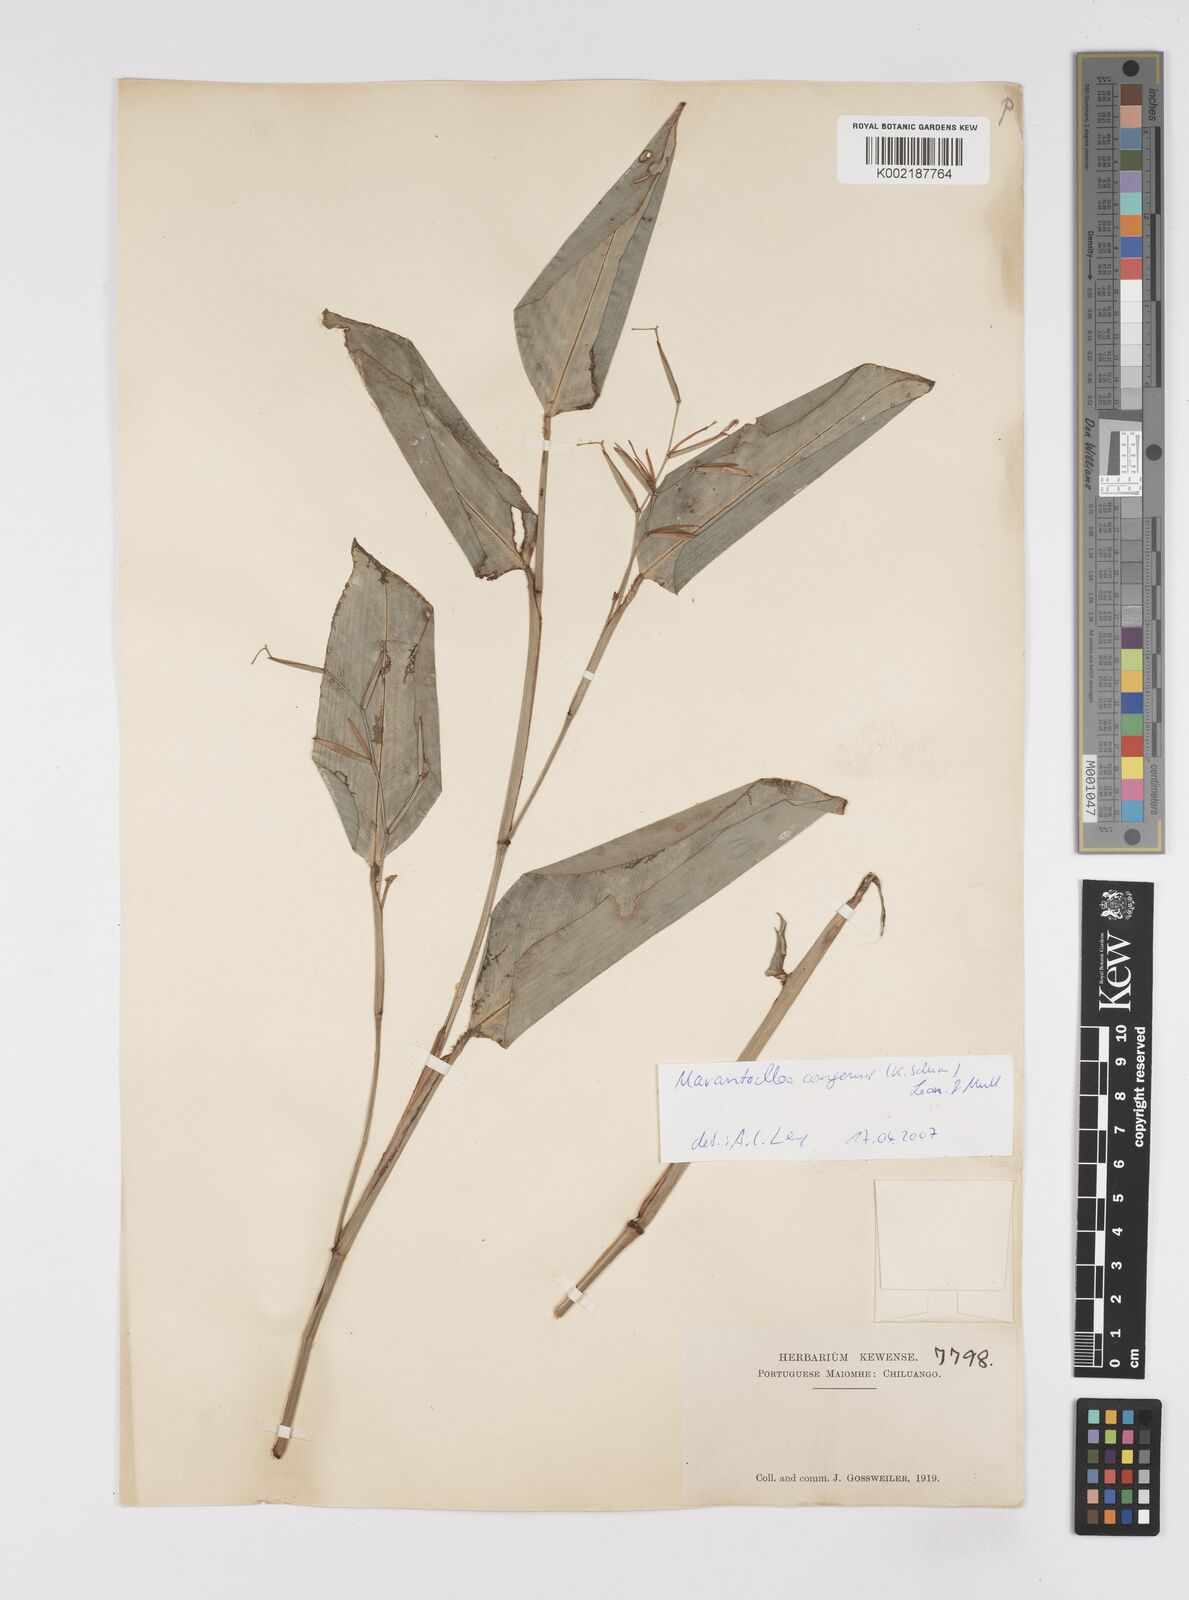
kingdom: Plantae
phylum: Tracheophyta
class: Liliopsida
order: Zingiberales
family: Marantaceae
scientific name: Marantaceae
